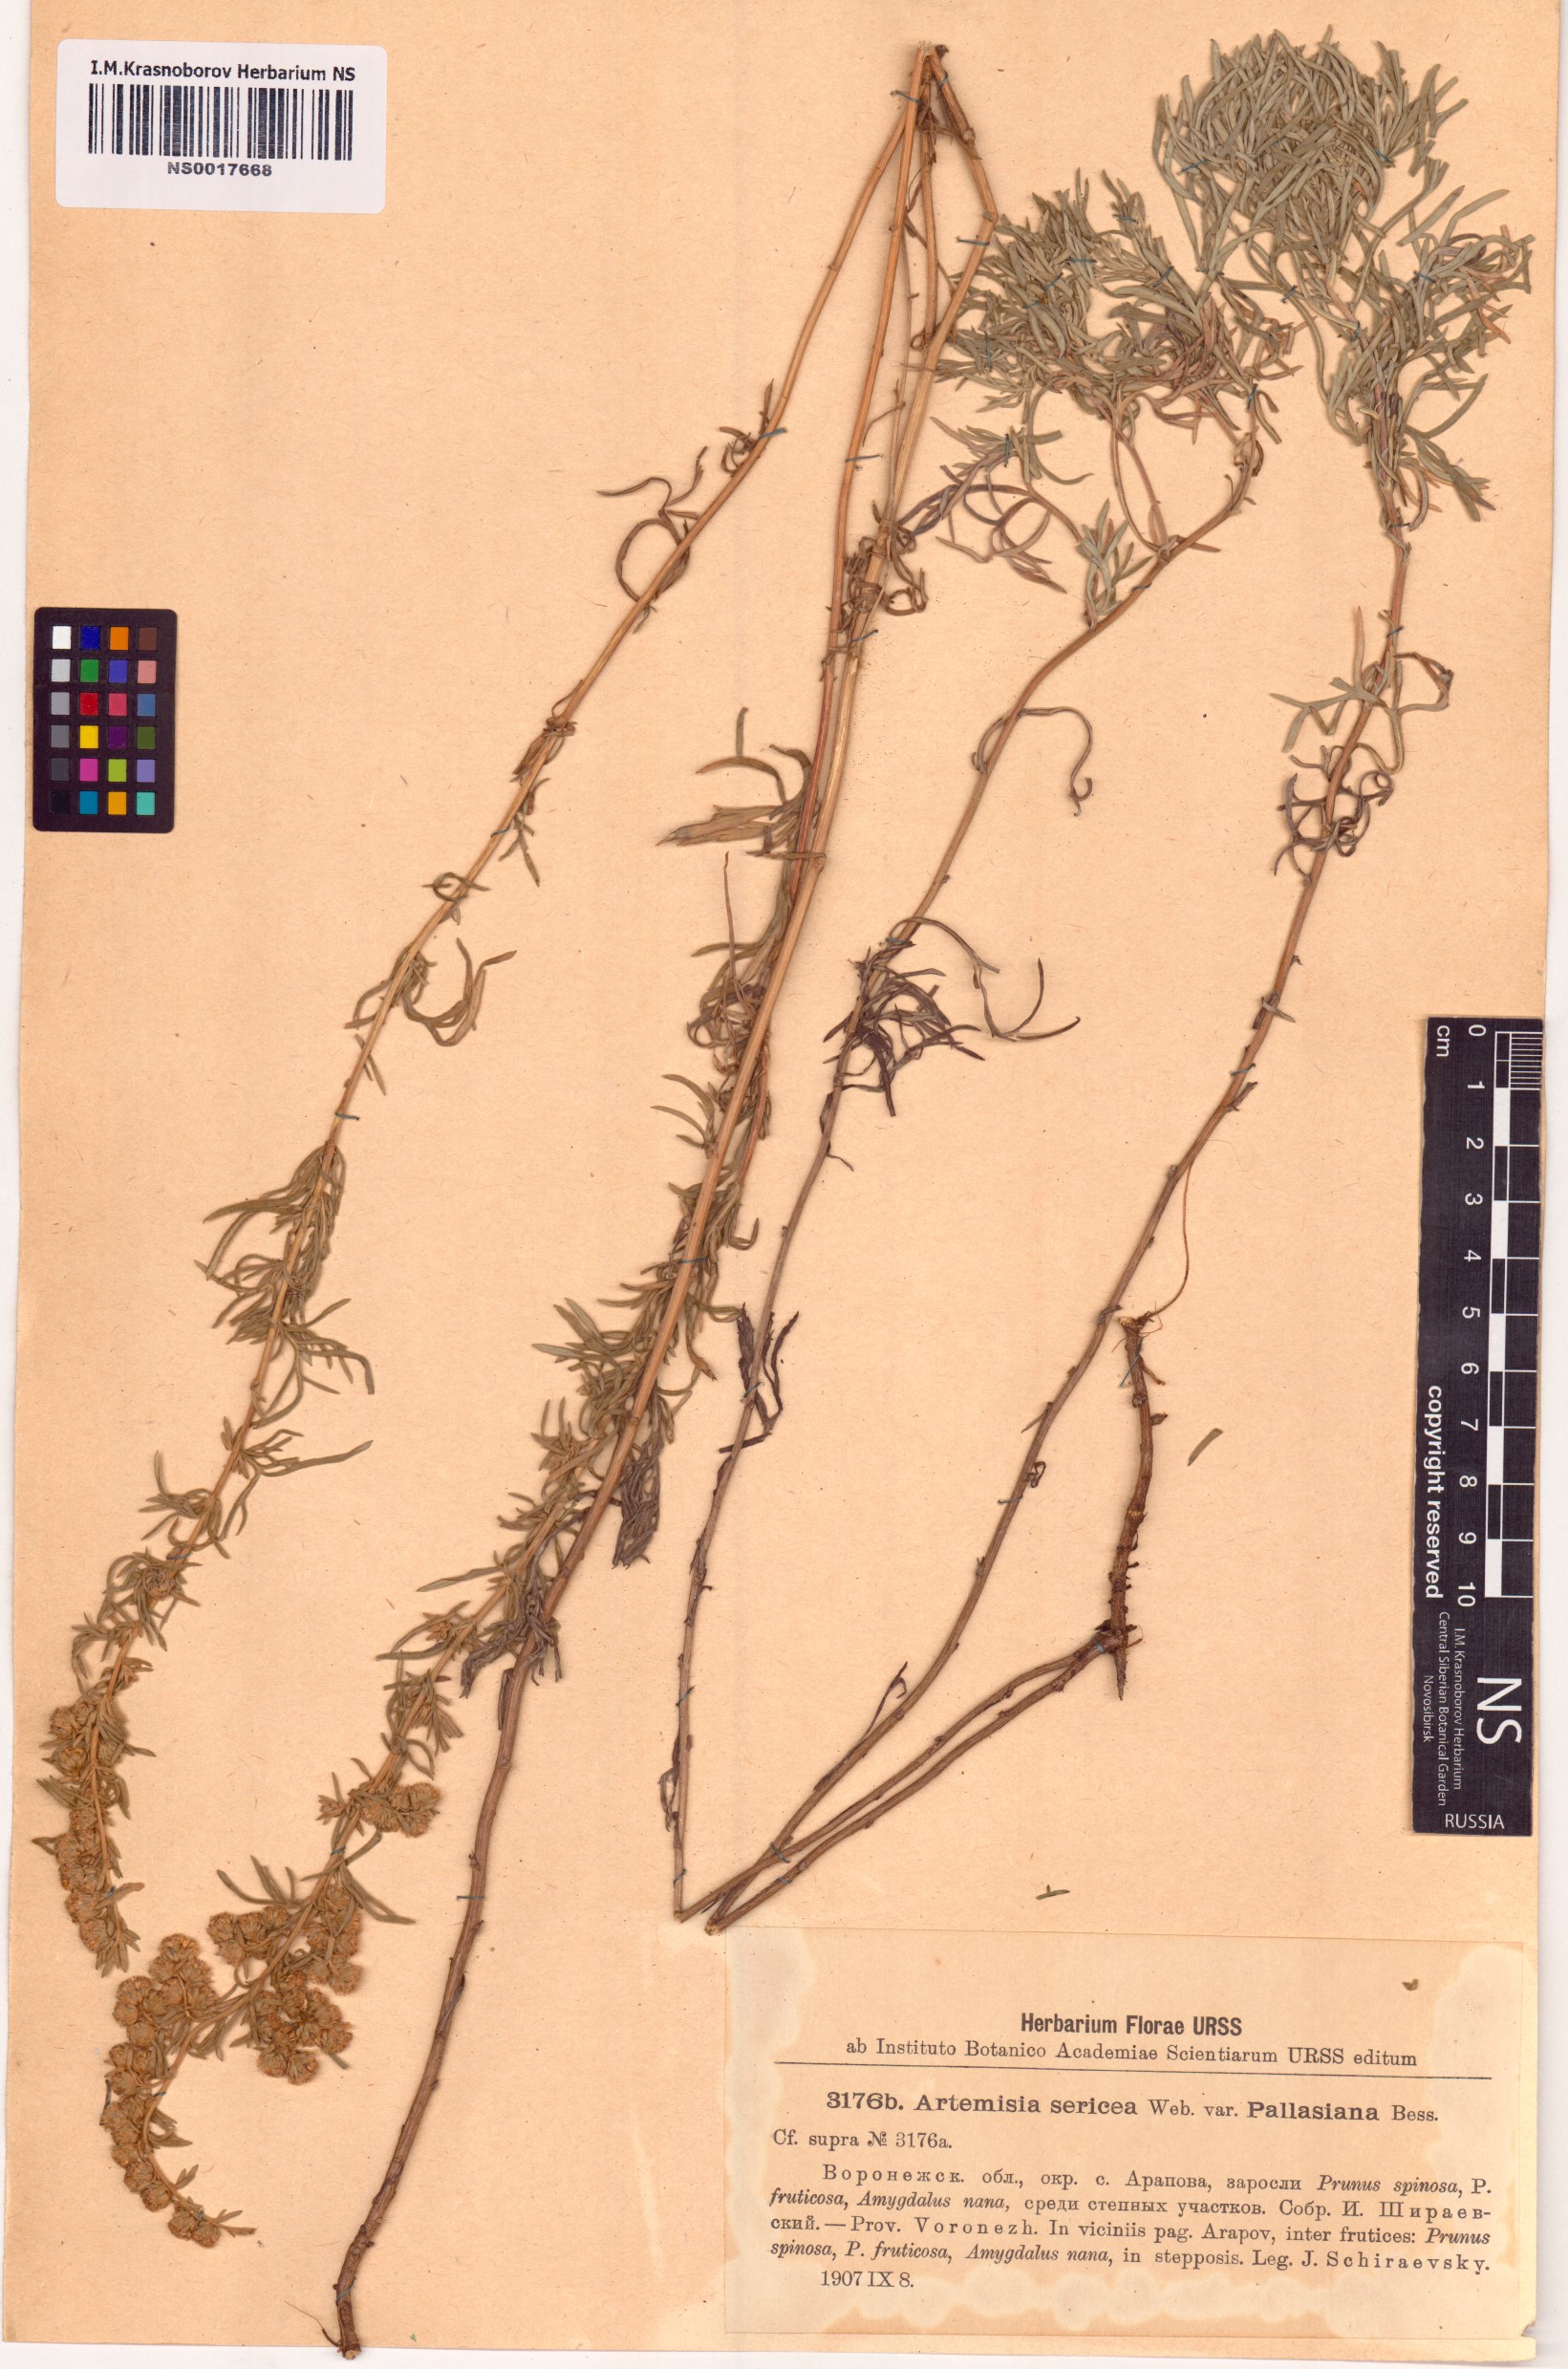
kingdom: Plantae
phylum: Tracheophyta
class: Magnoliopsida
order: Asterales
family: Asteraceae
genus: Artemisia
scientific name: Artemisia sericea
